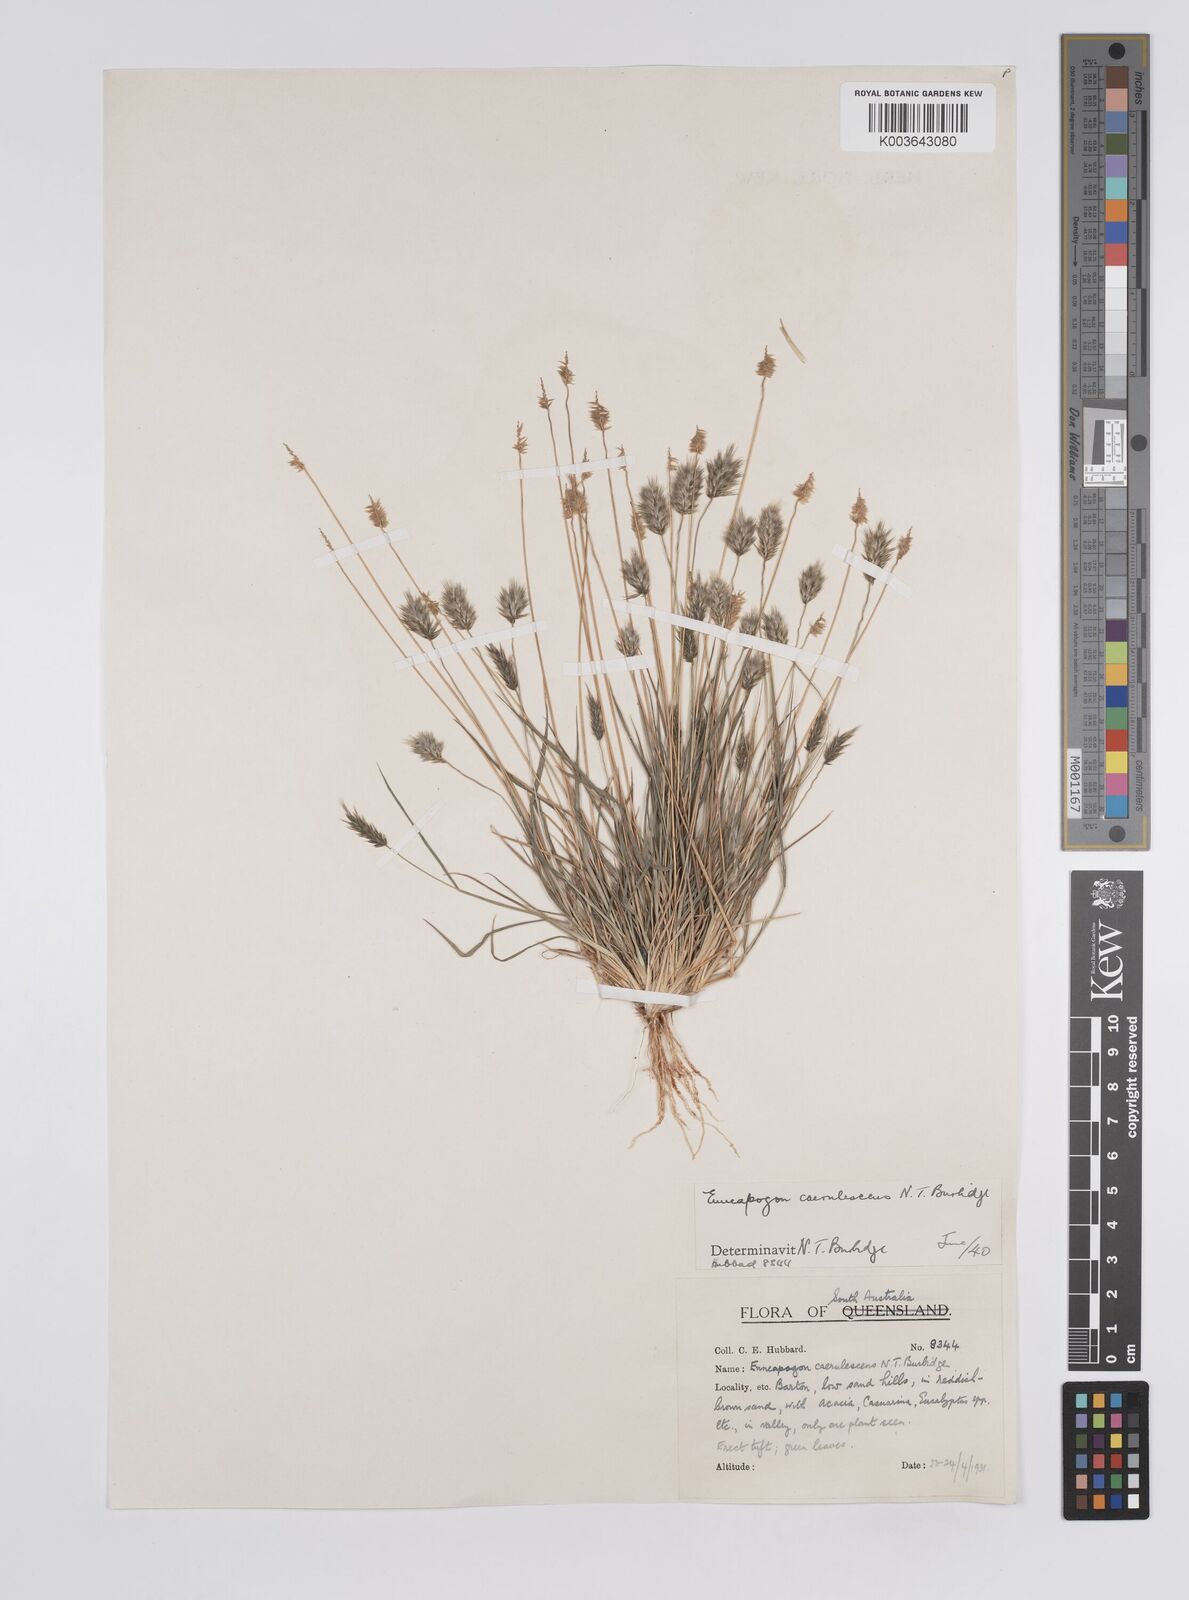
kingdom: Plantae
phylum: Tracheophyta
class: Liliopsida
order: Poales
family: Poaceae
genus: Enneapogon
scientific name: Enneapogon caerulescens
